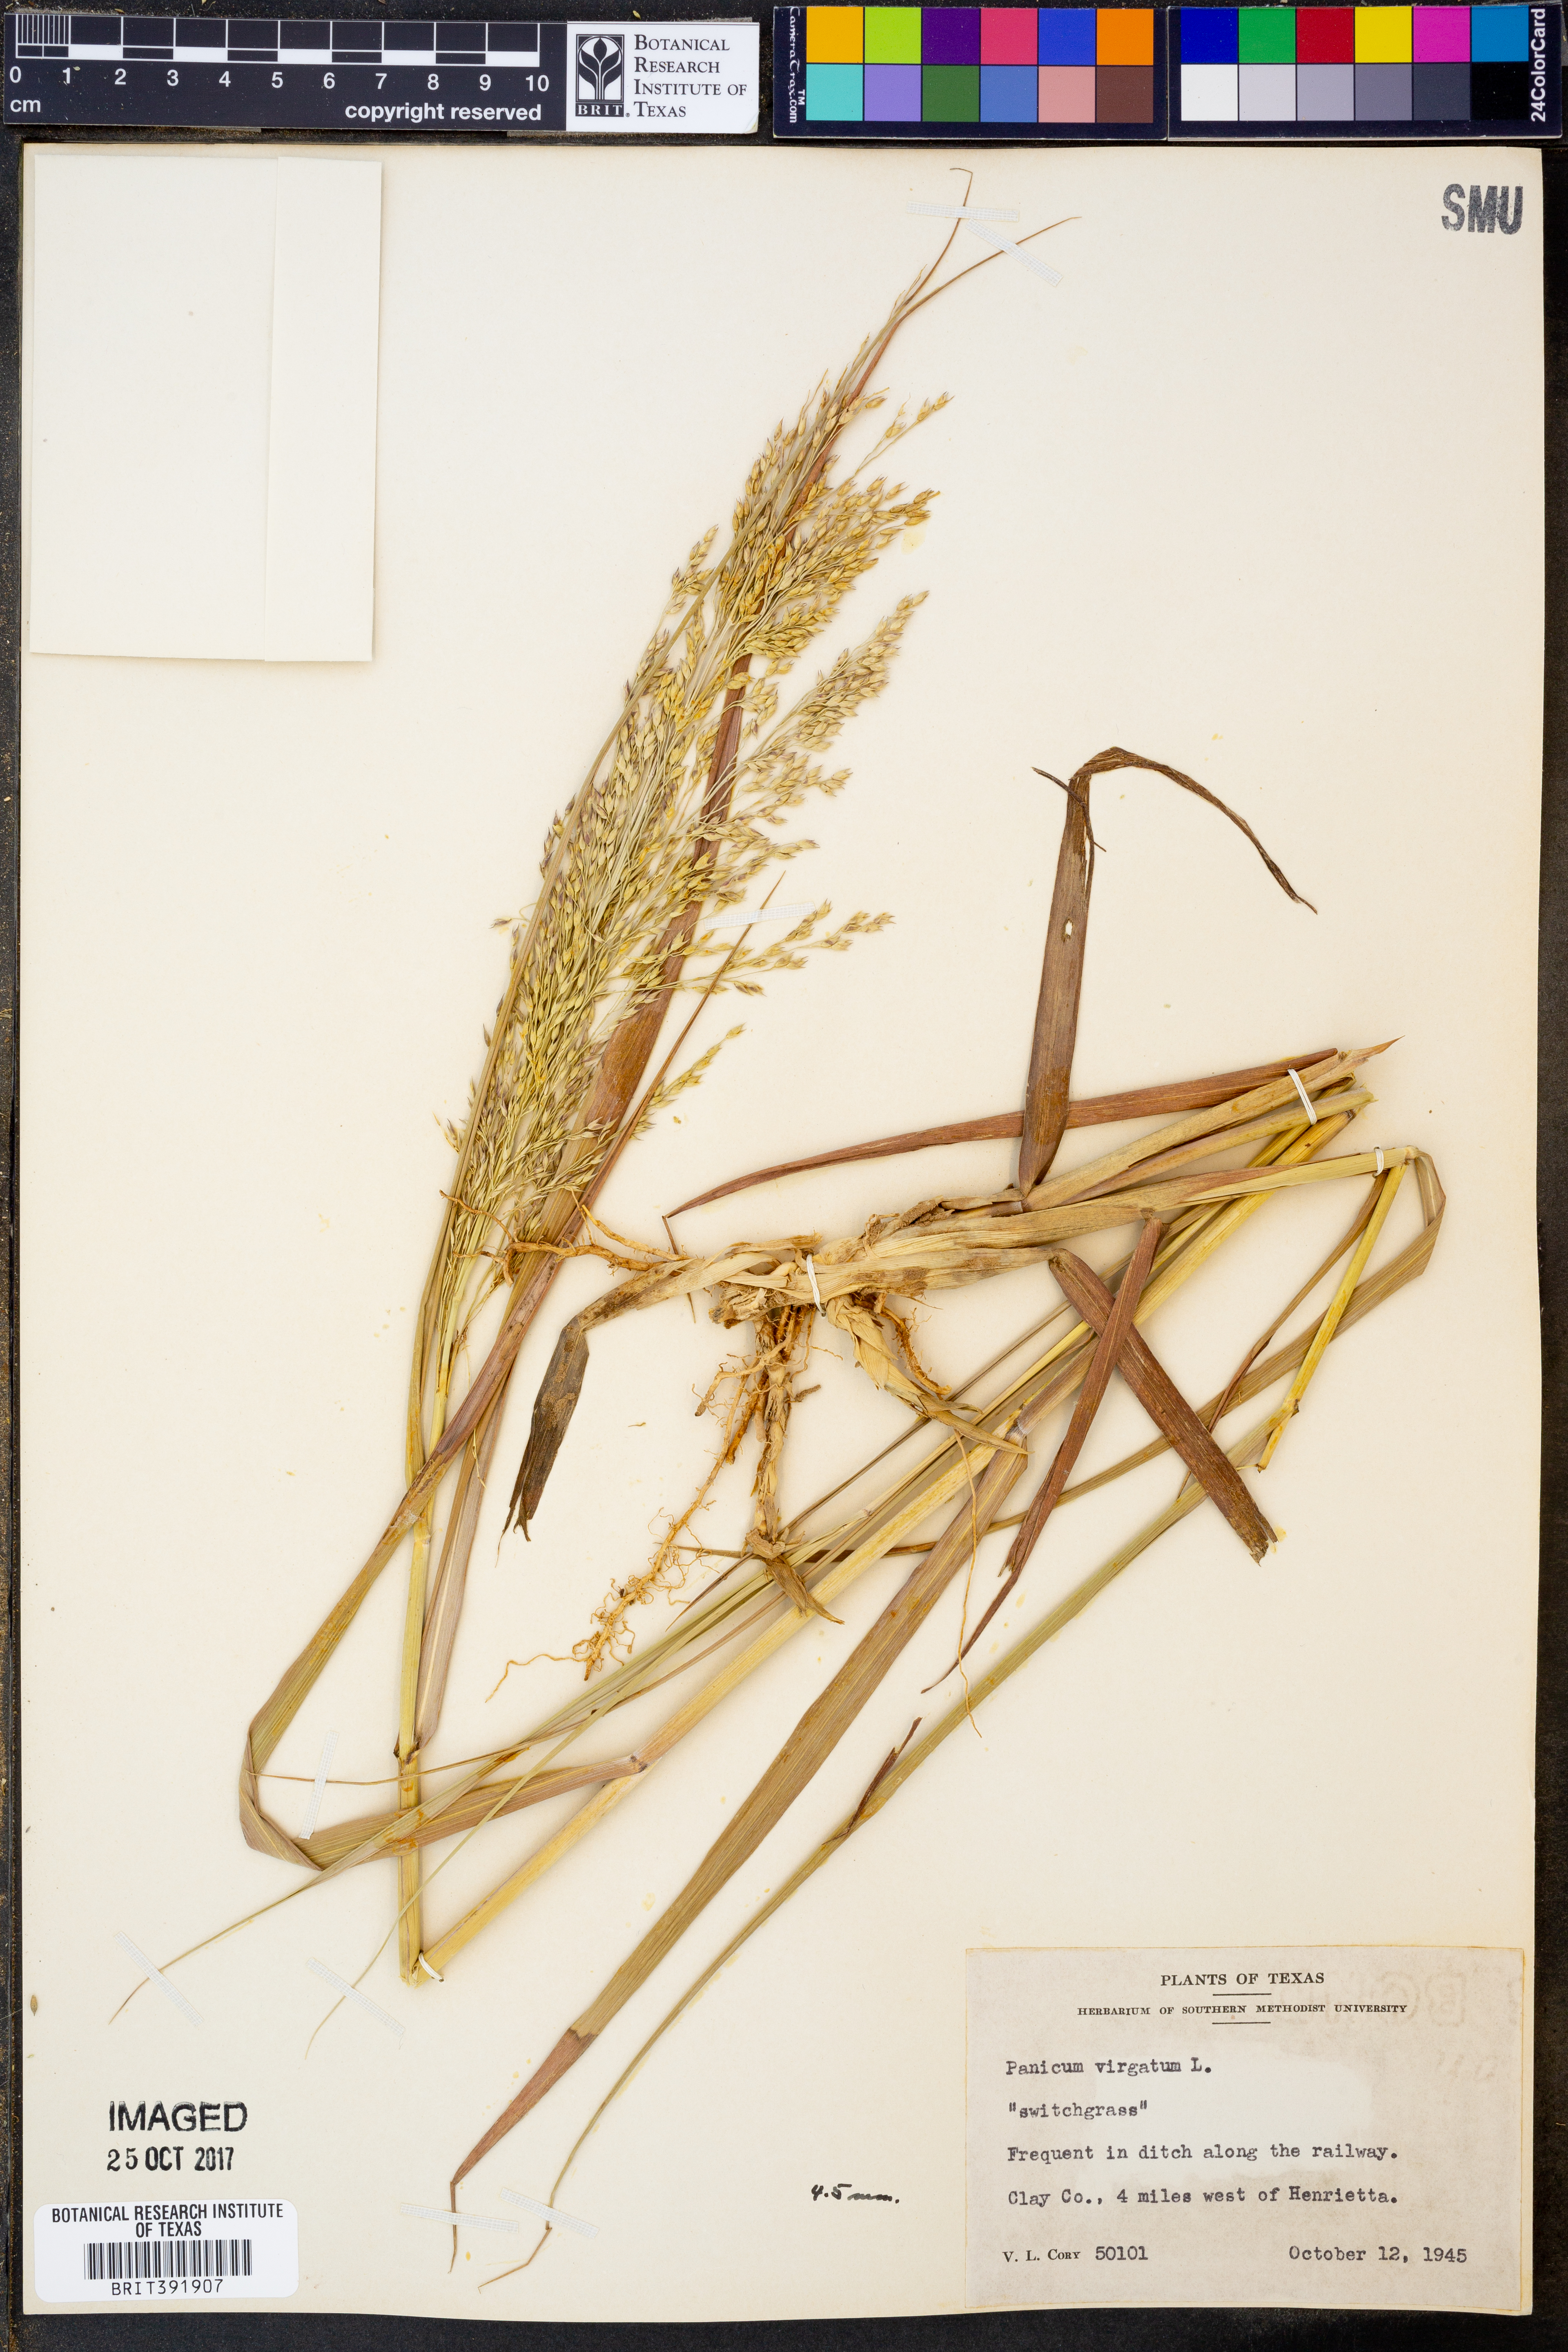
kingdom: Plantae
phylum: Tracheophyta
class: Liliopsida
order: Poales
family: Poaceae
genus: Panicum
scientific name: Panicum virgatum
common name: Switchgrass
